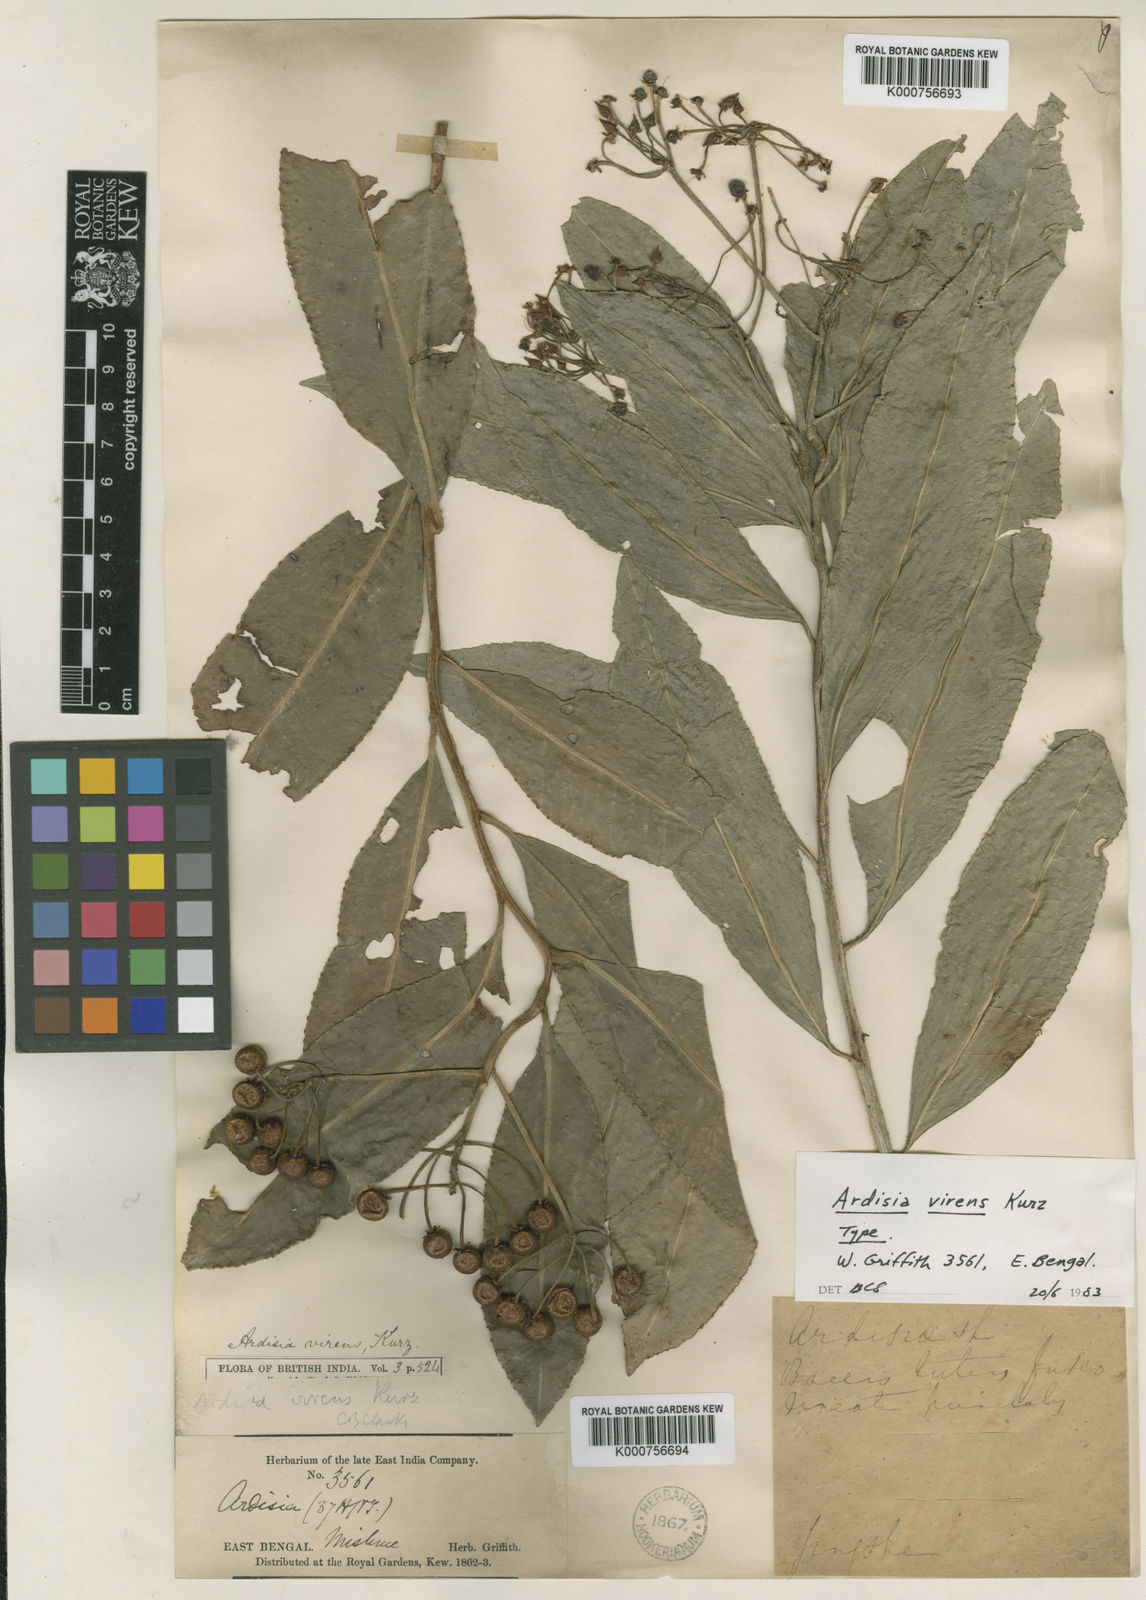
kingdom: Plantae
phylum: Tracheophyta
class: Magnoliopsida
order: Ericales
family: Primulaceae
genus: Ardisia
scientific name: Ardisia polysticta
